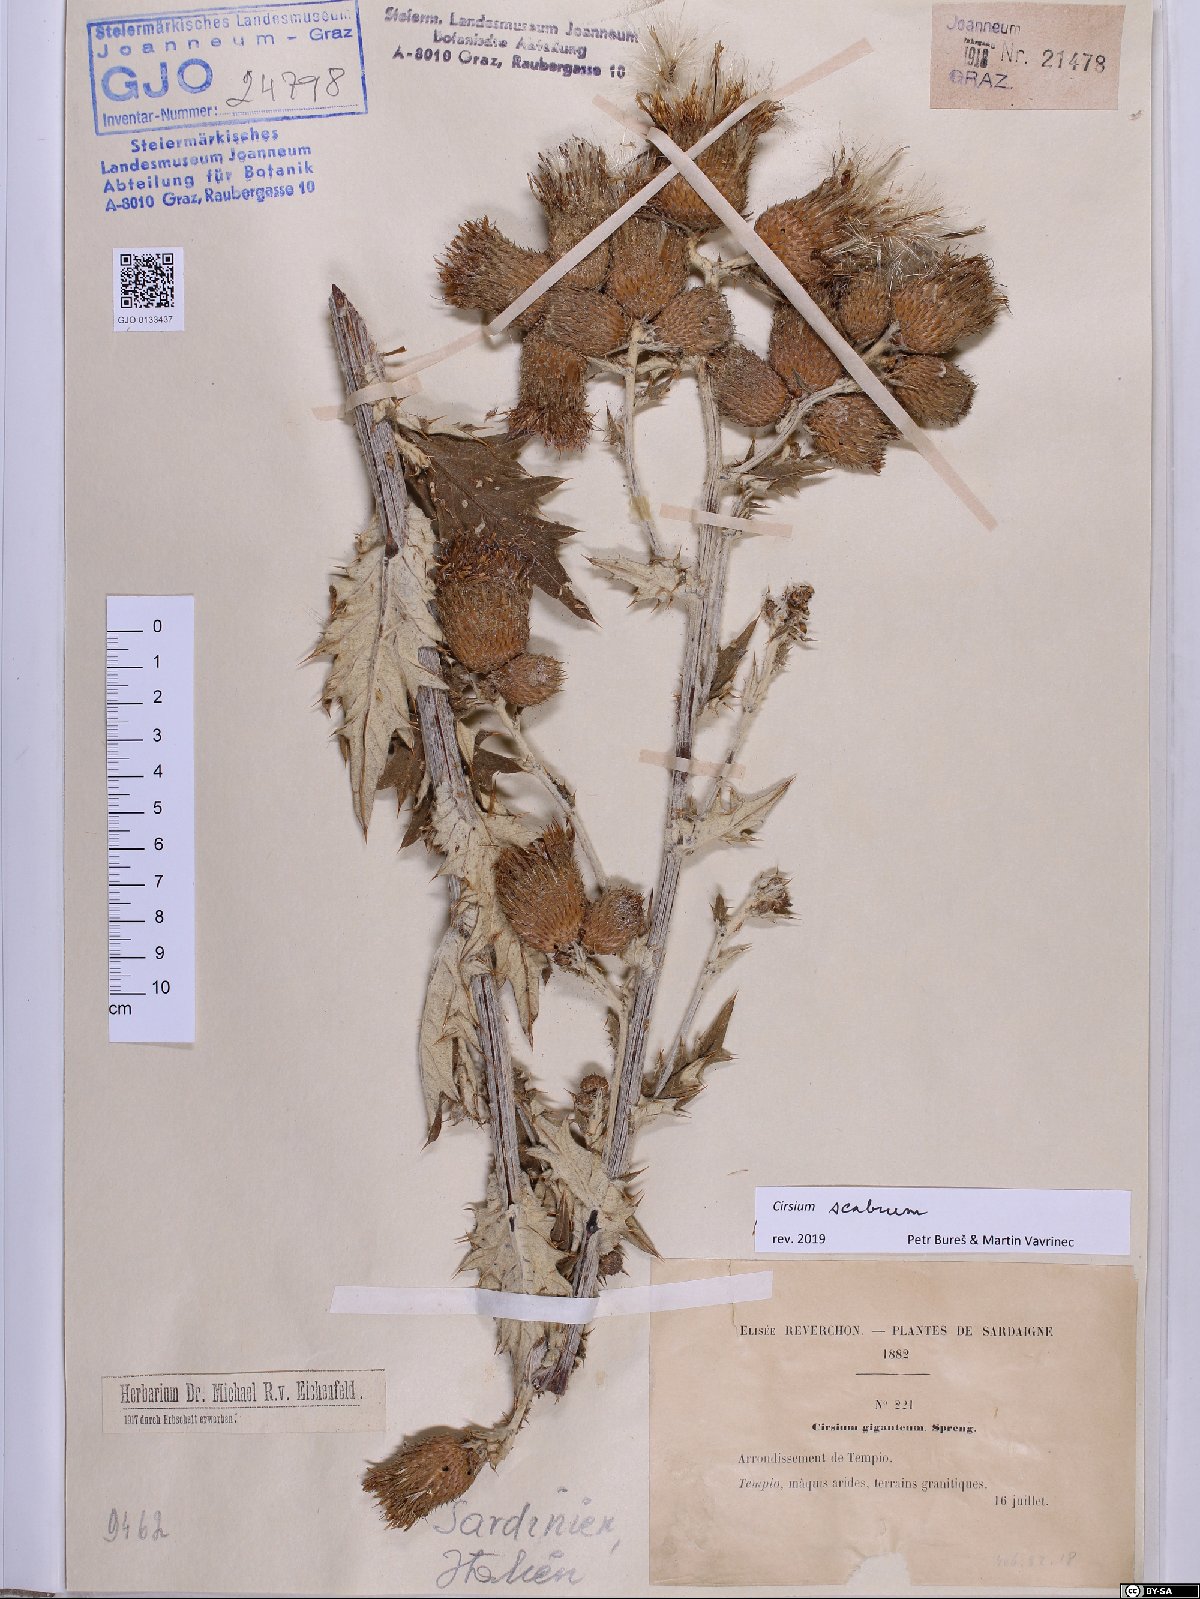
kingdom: Plantae
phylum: Tracheophyta
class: Magnoliopsida
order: Asterales
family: Asteraceae
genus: Lophiolepis
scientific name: Lophiolepis scabra
